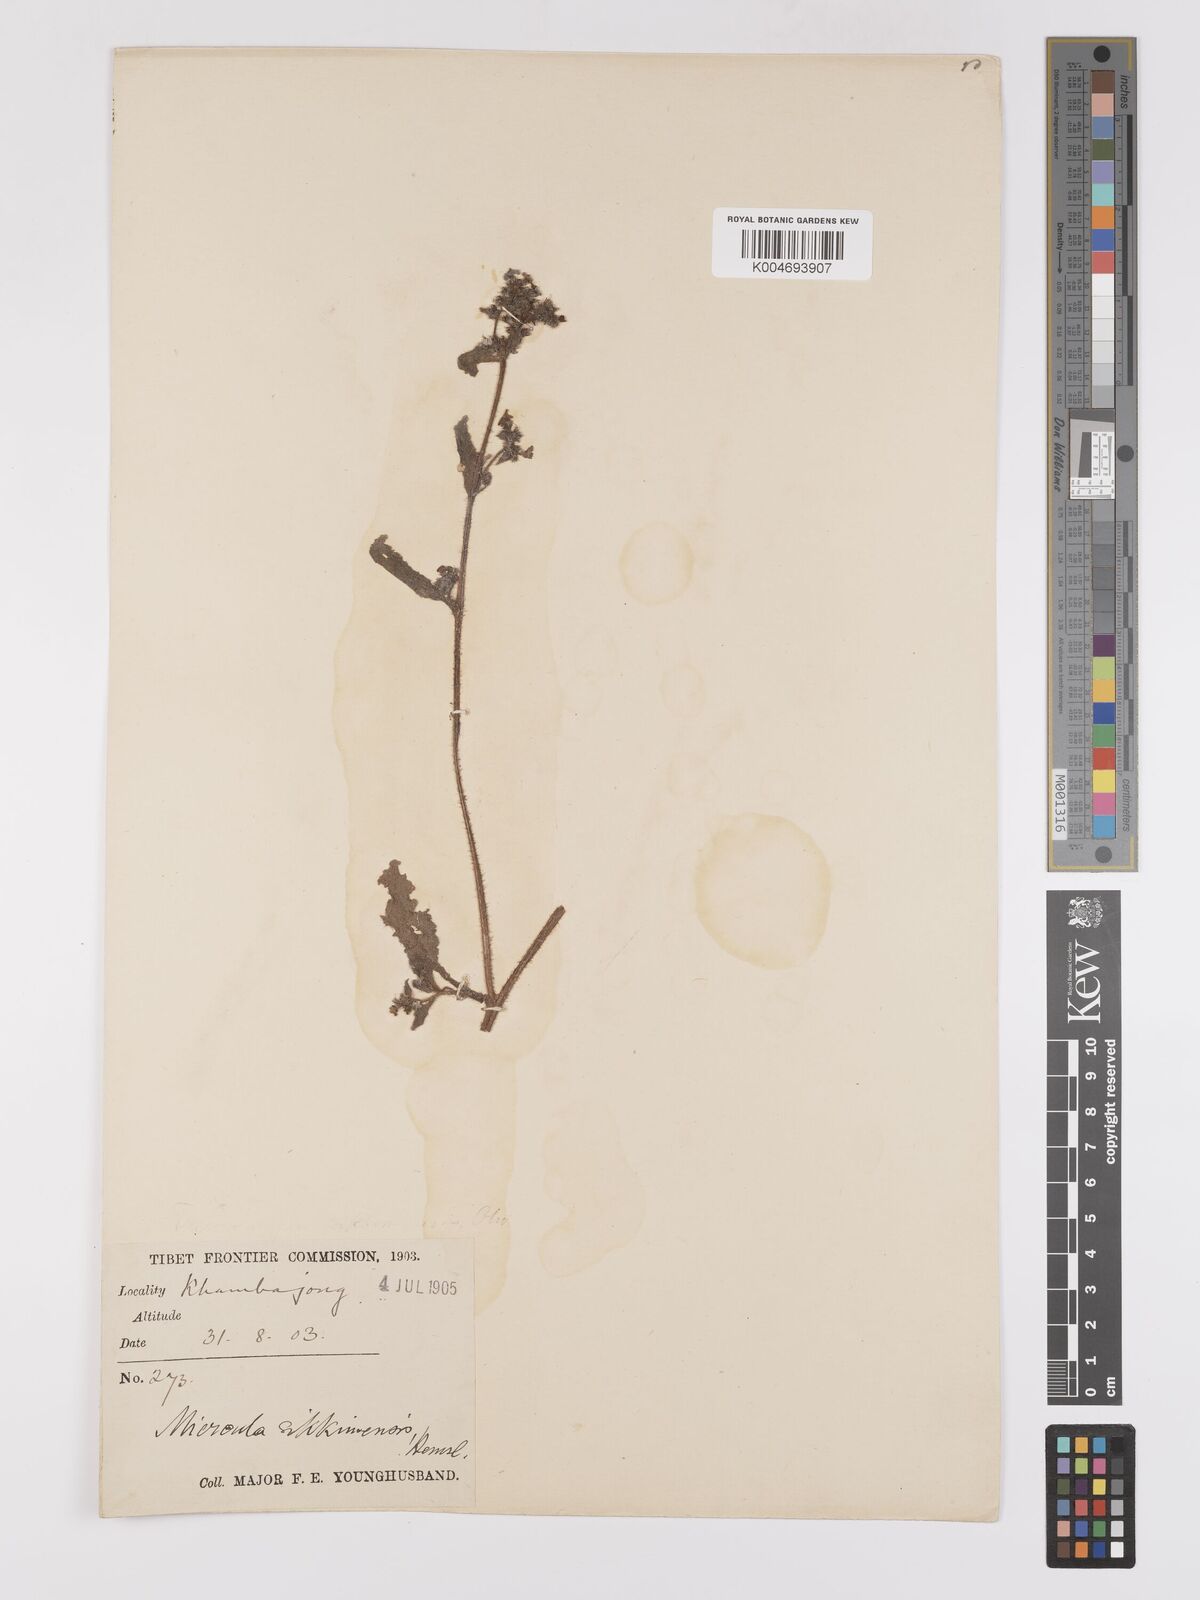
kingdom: Plantae
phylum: Tracheophyta
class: Magnoliopsida
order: Boraginales
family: Boraginaceae
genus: Microula
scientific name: Microula sikkimensis
